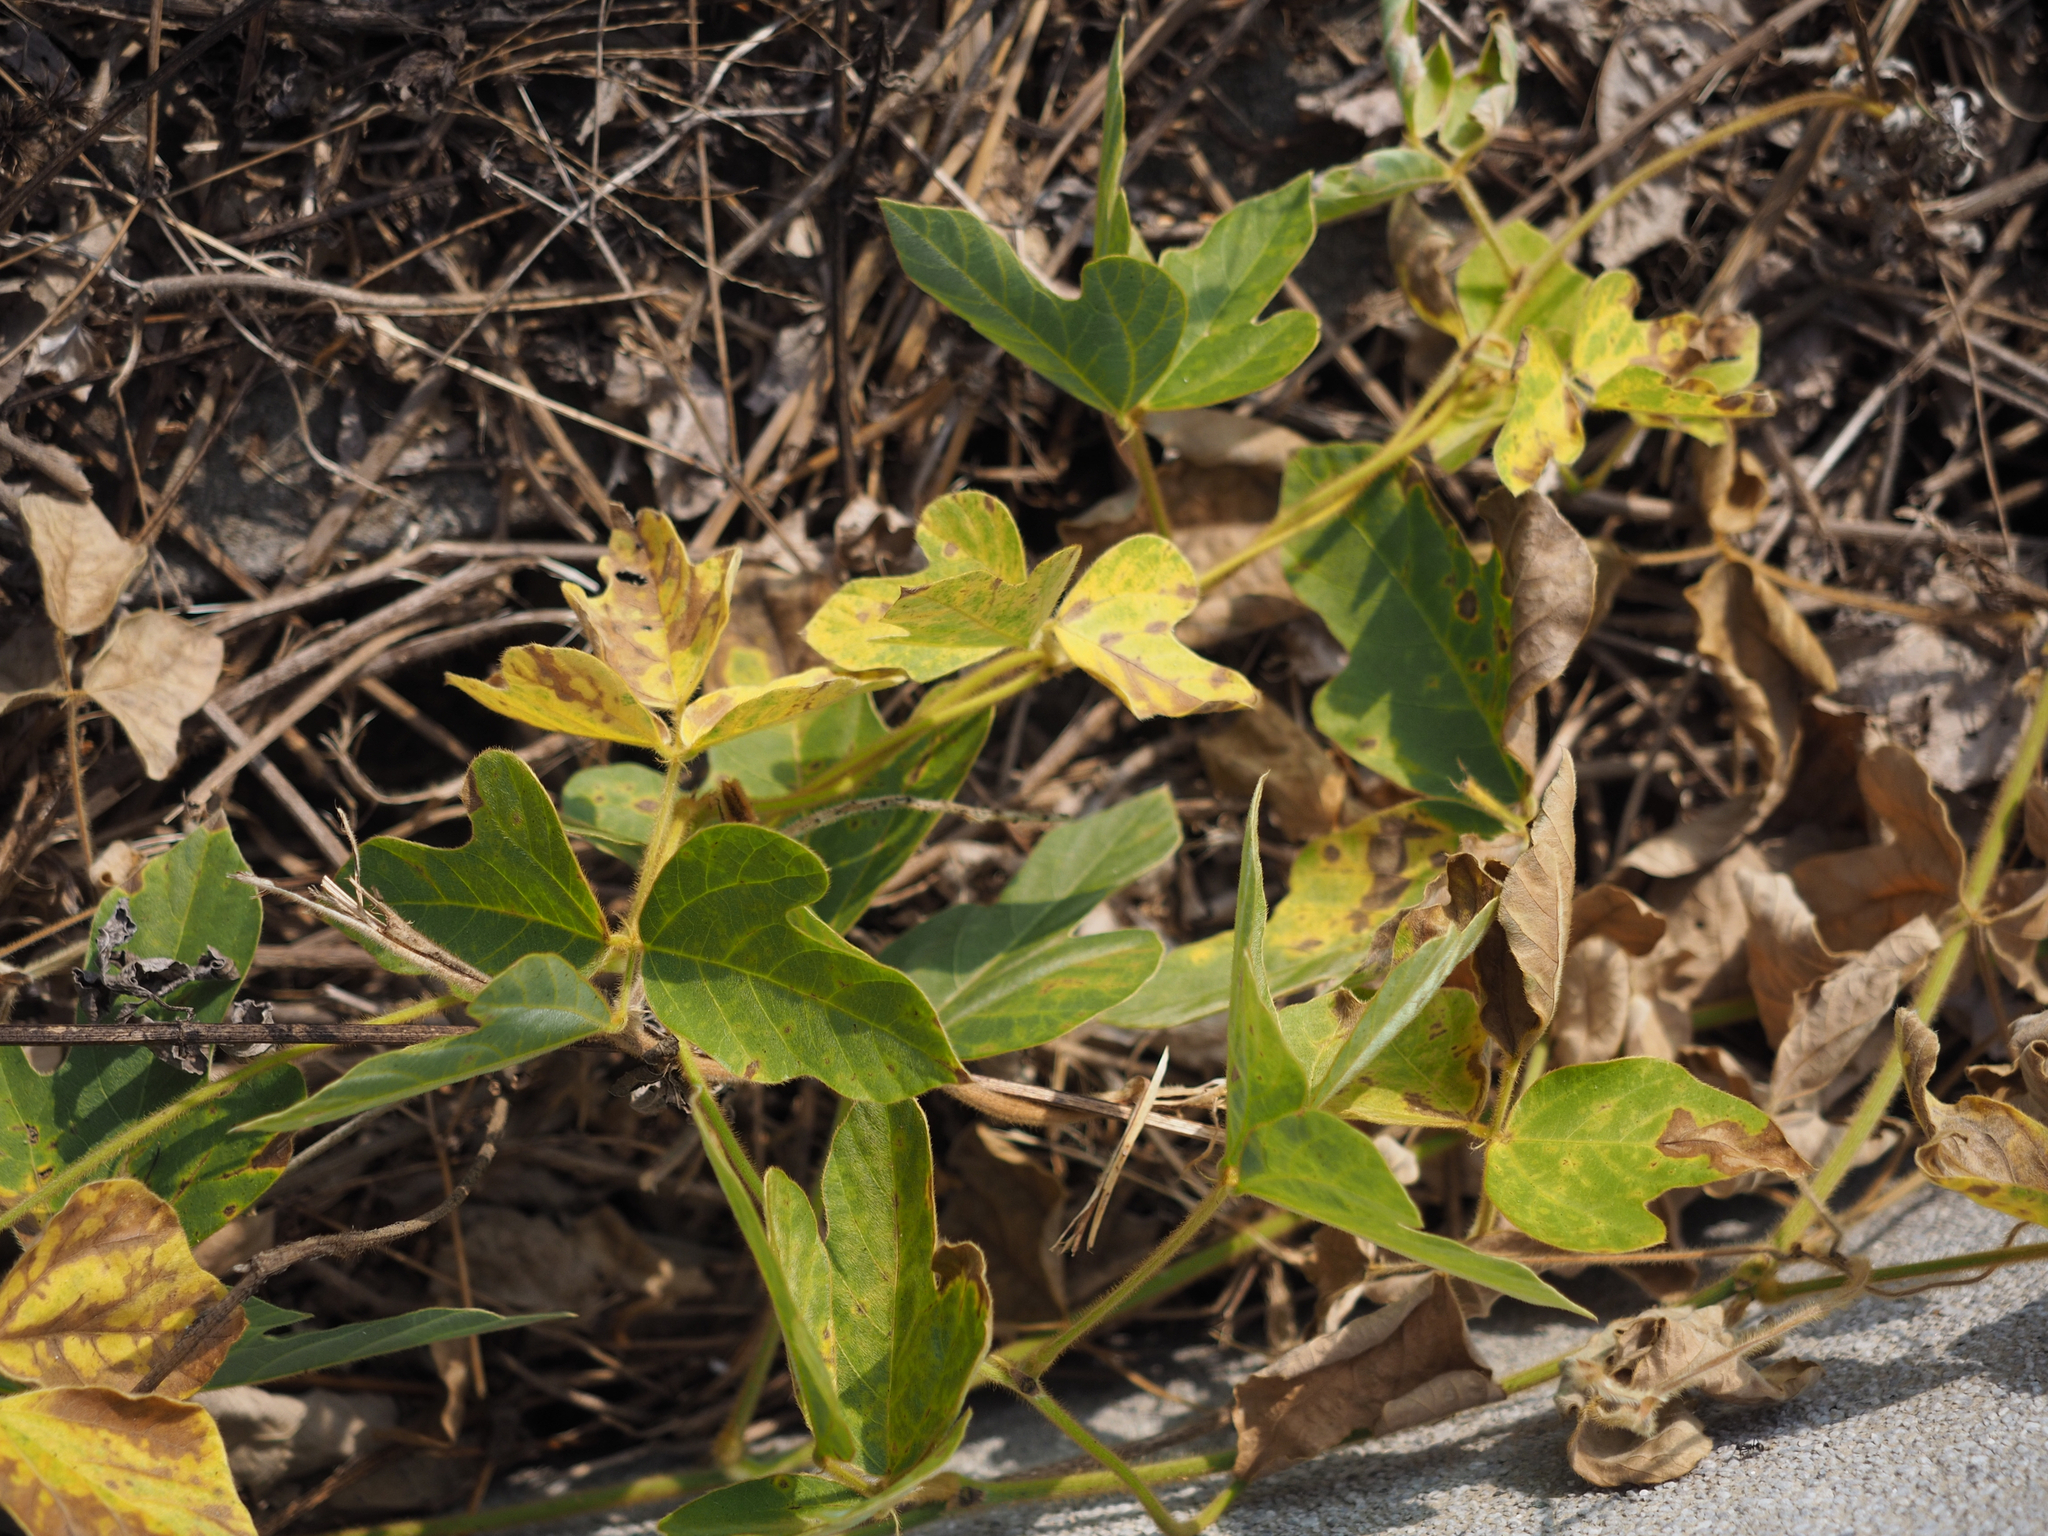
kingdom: Plantae
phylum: Tracheophyta
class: Magnoliopsida
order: Fabales
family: Fabaceae
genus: Neustanthus
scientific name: Neustanthus phaseoloides
